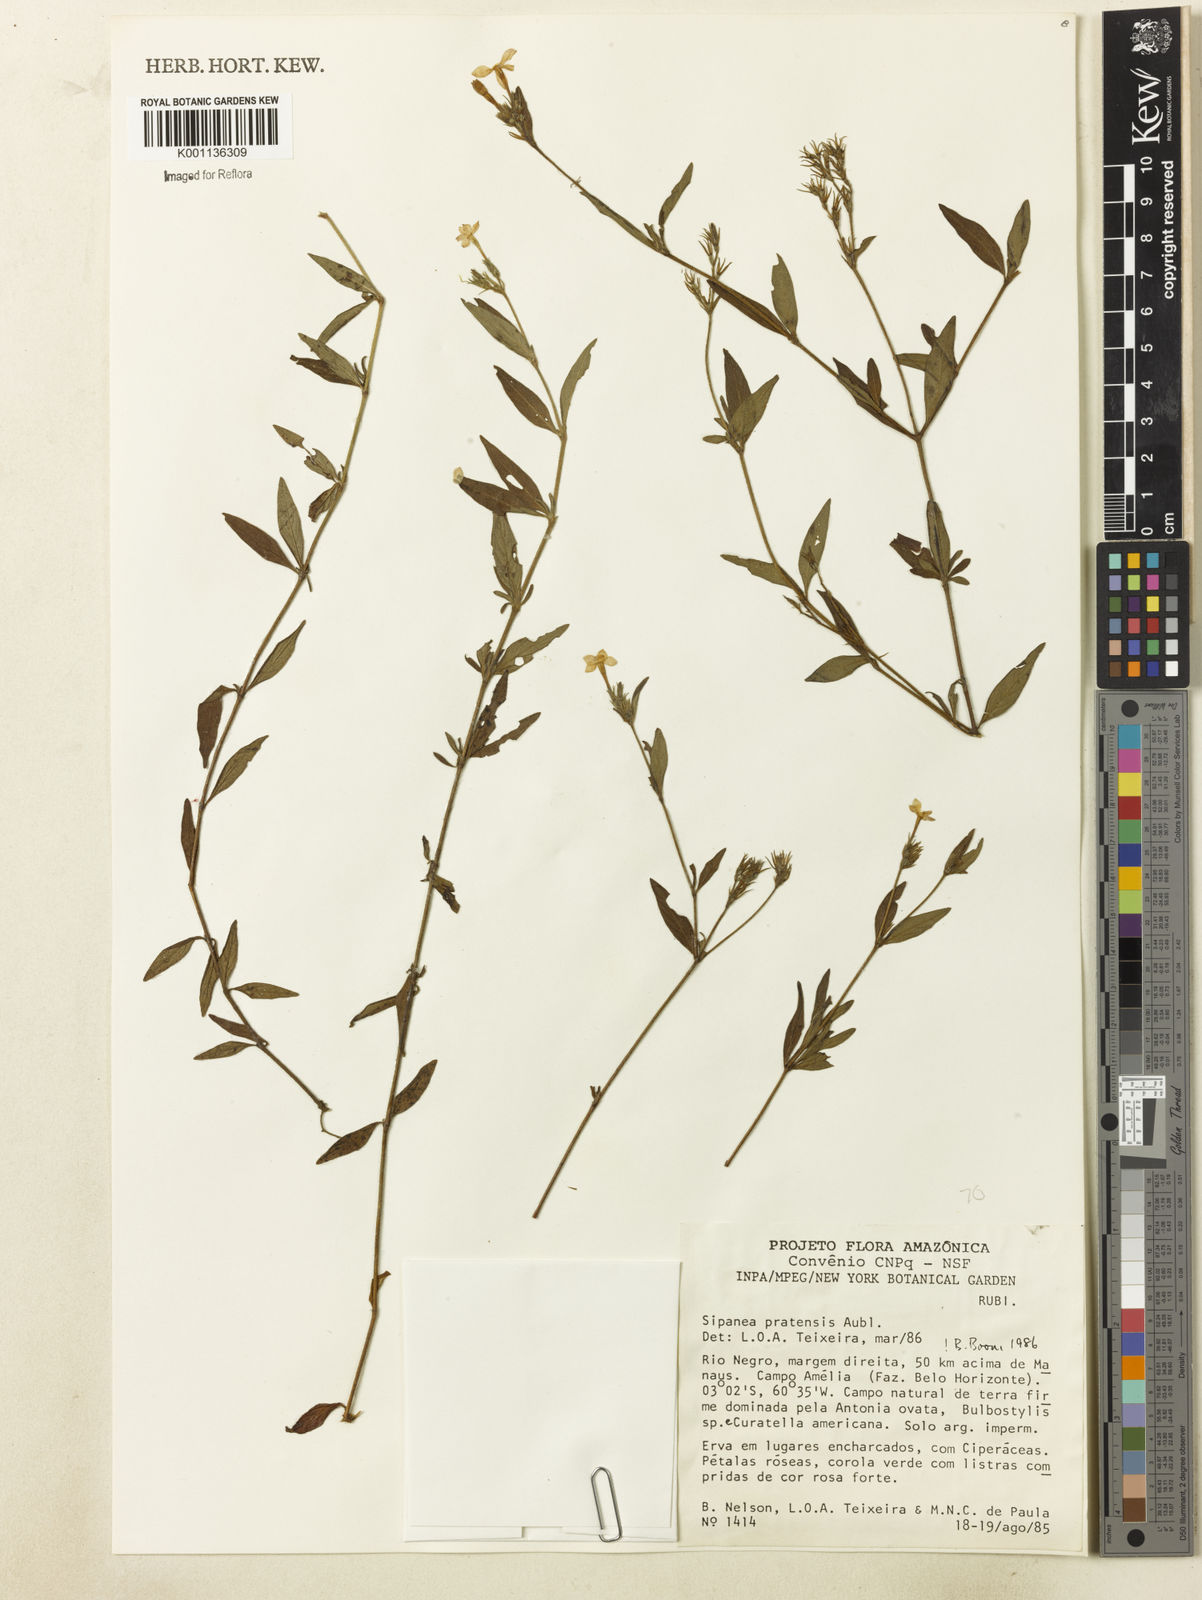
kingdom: Plantae
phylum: Tracheophyta
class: Magnoliopsida
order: Gentianales
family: Rubiaceae
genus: Sipanea
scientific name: Sipanea pratensis
